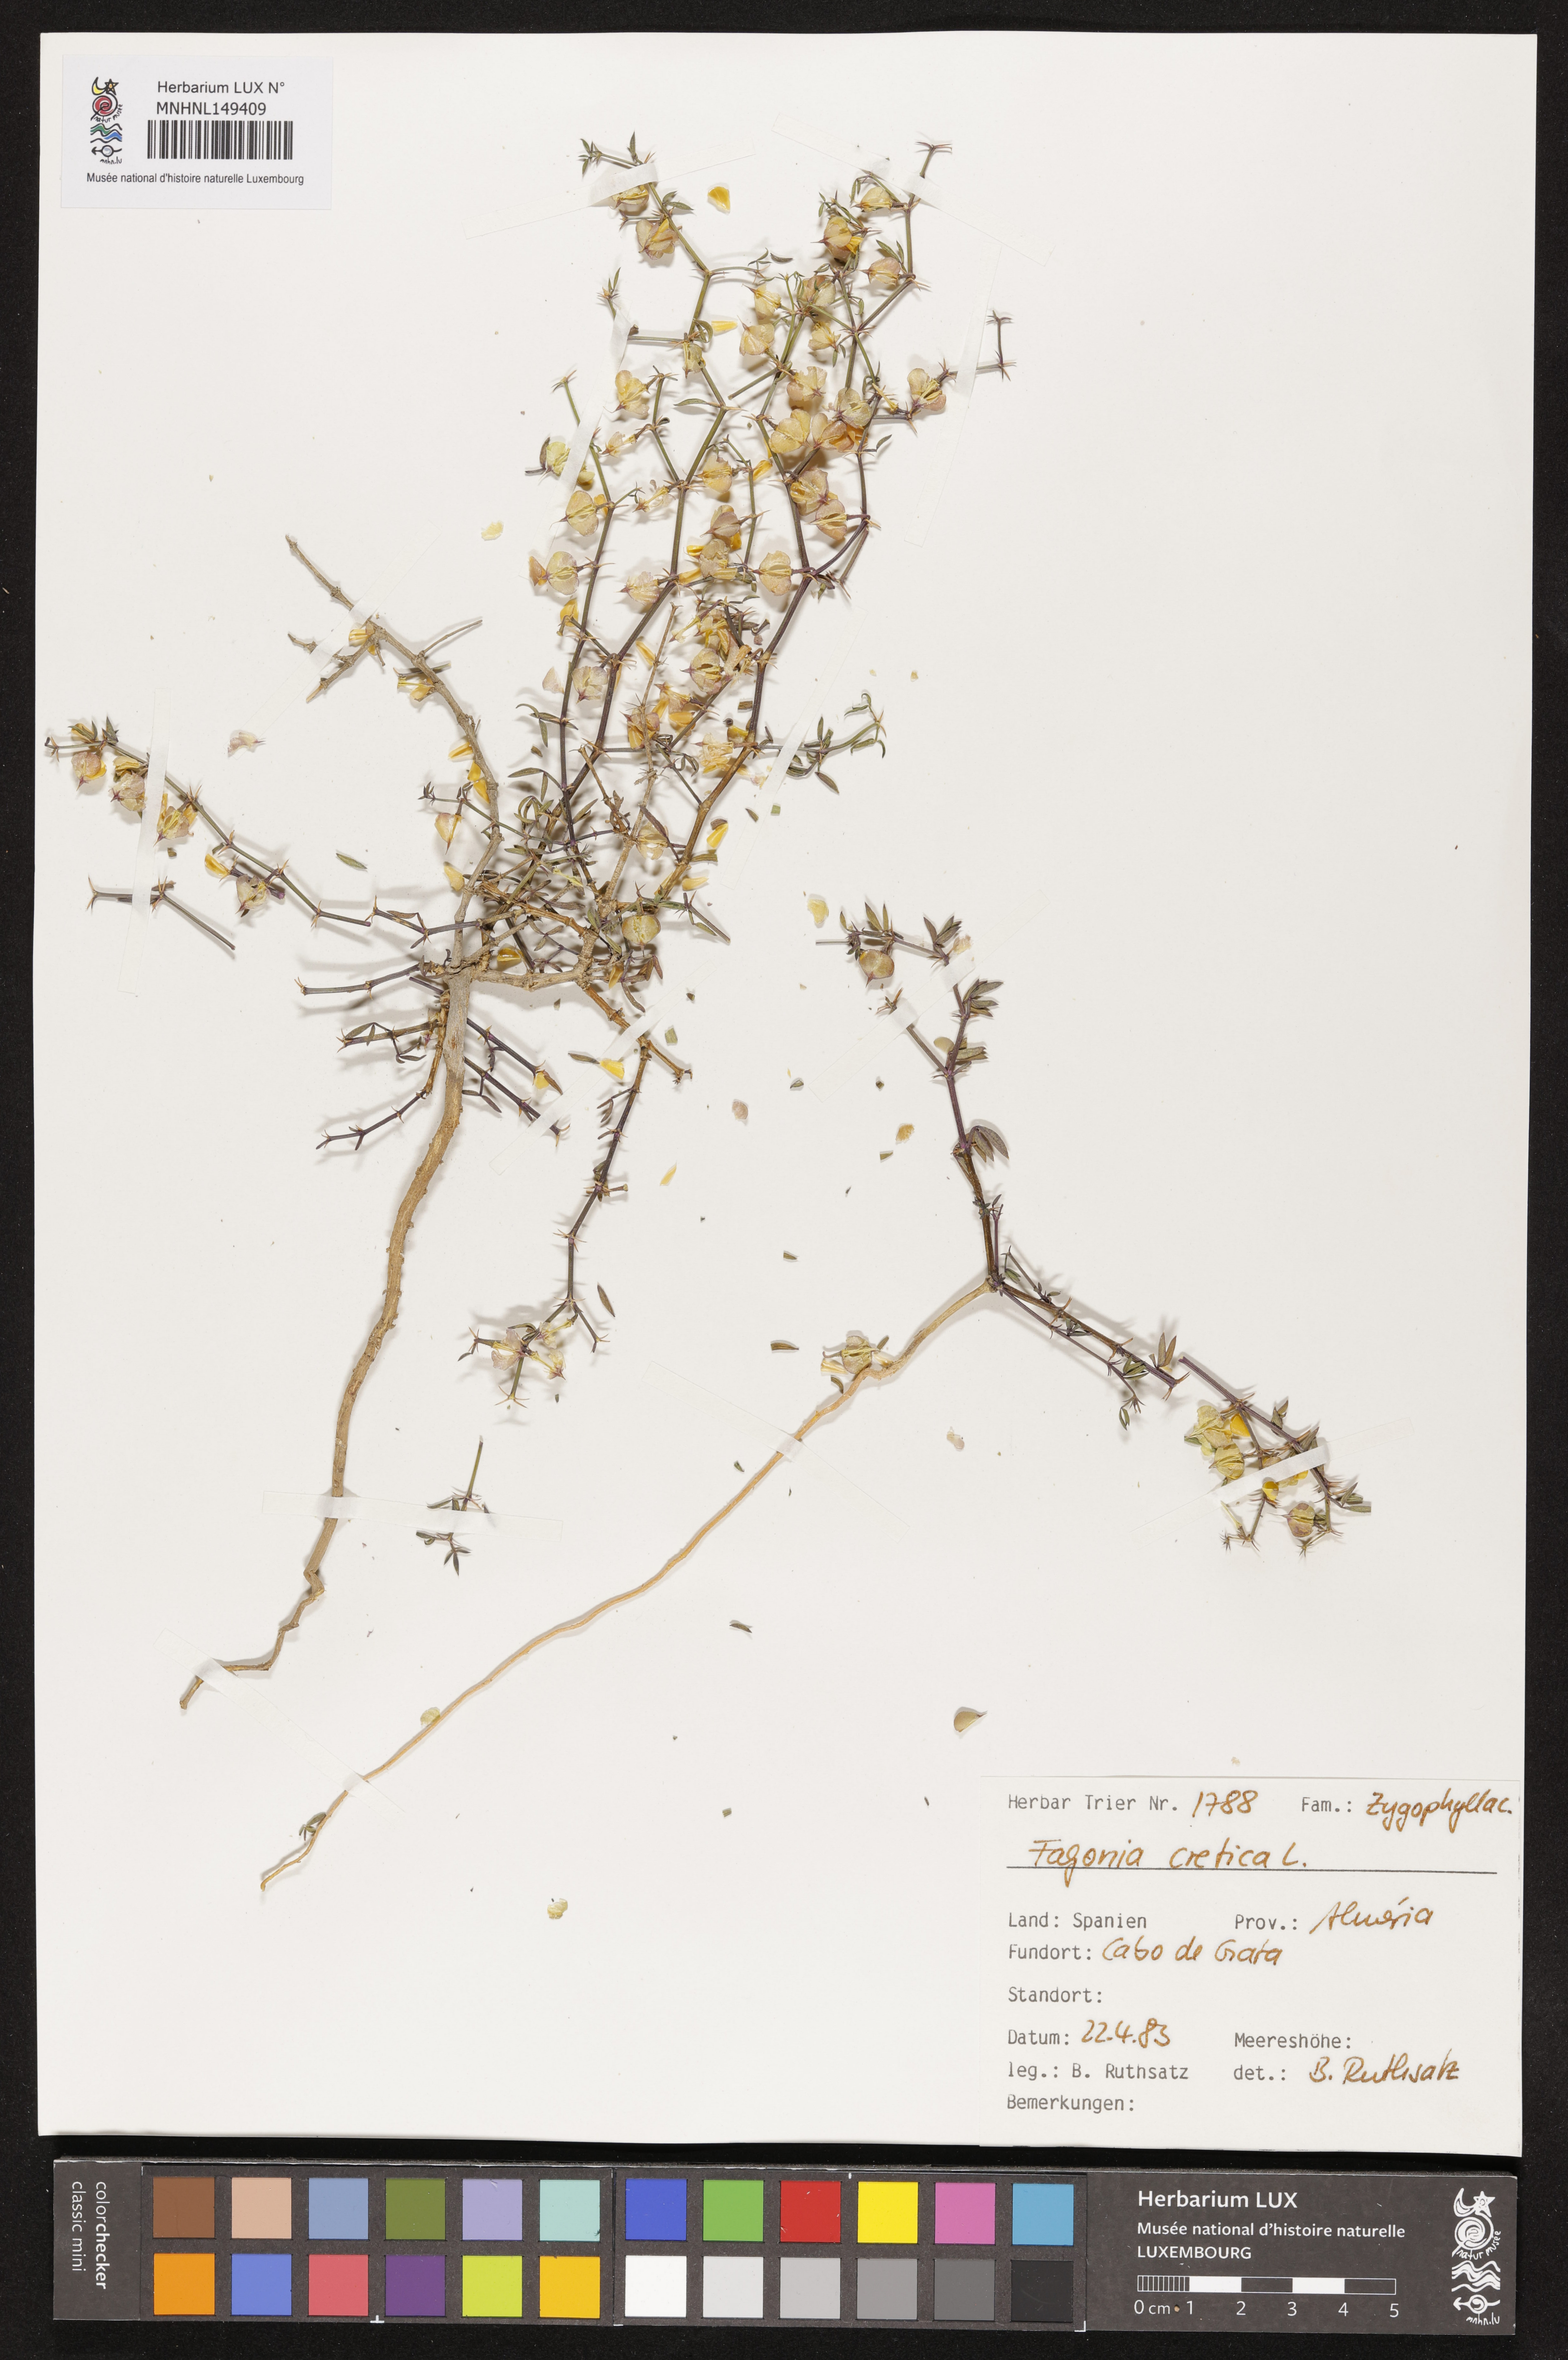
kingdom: Plantae
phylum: Tracheophyta
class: Magnoliopsida
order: Zygophyllales
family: Zygophyllaceae
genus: Fagonia
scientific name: Fagonia cretica
